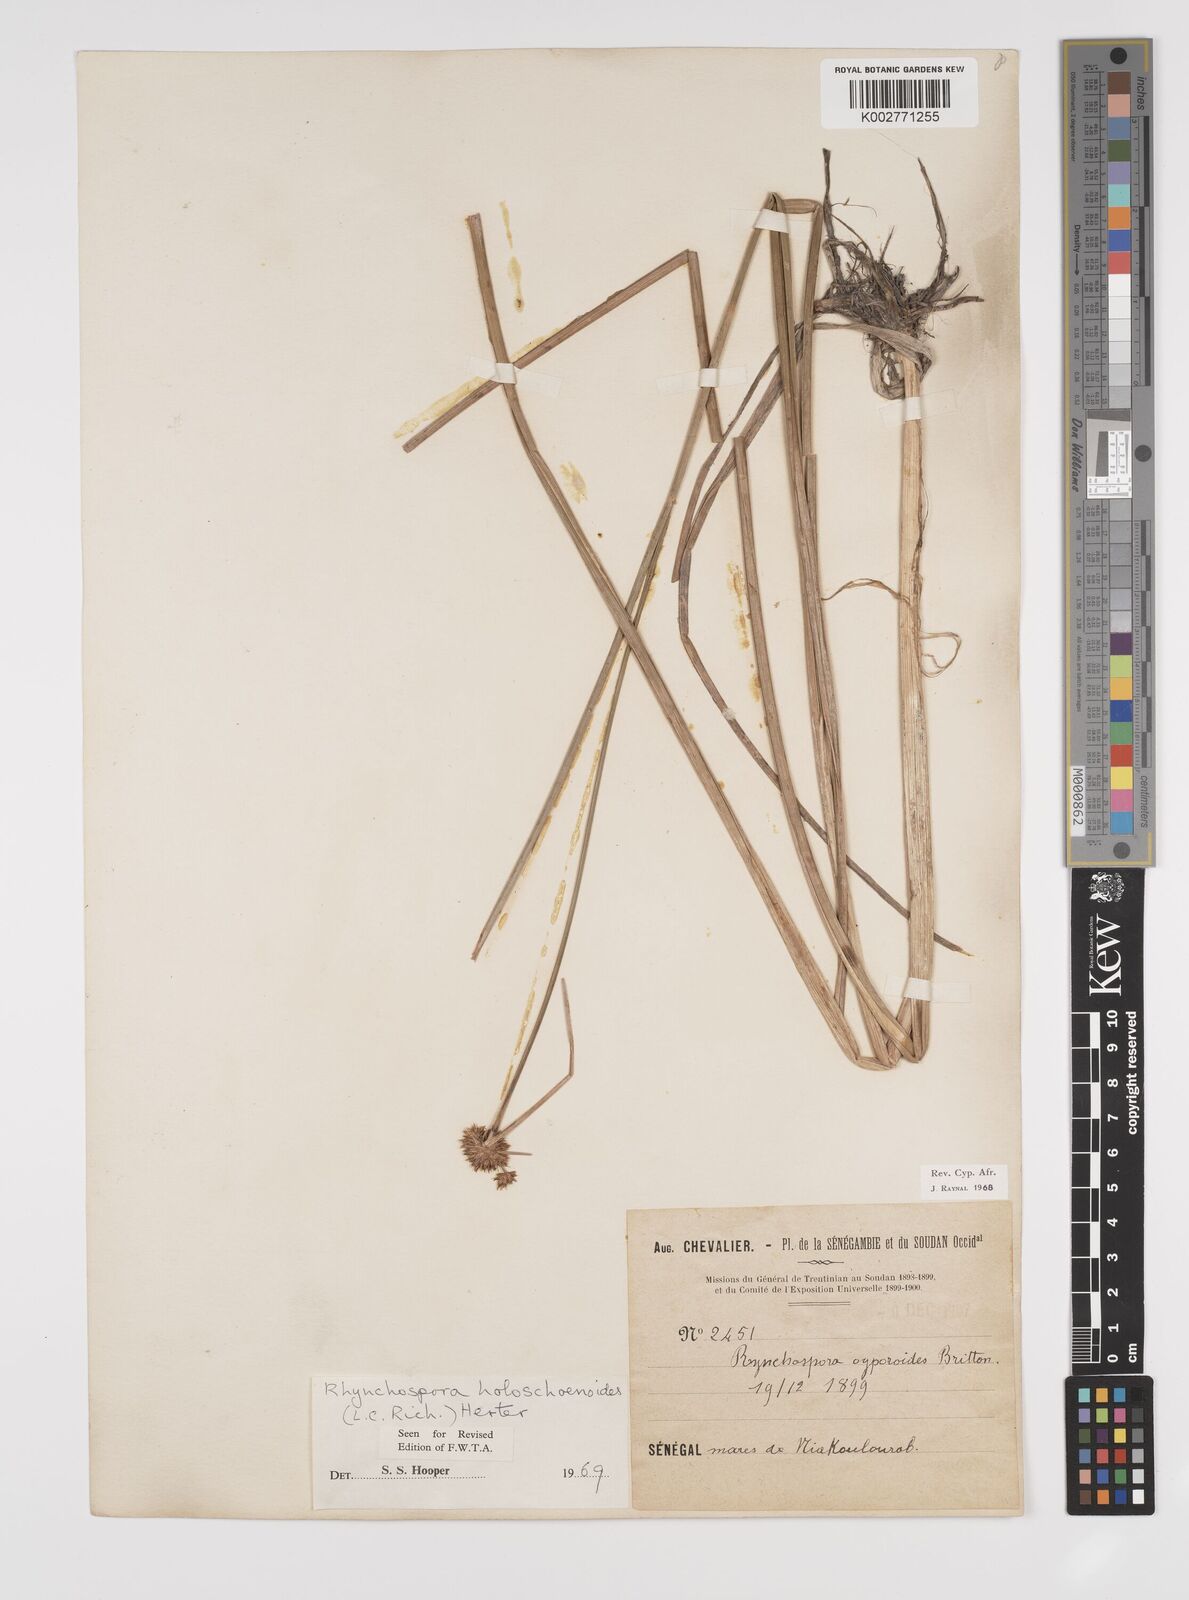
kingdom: Plantae
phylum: Tracheophyta
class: Liliopsida
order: Poales
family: Cyperaceae
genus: Rhynchospora
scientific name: Rhynchospora holoschoenoides
